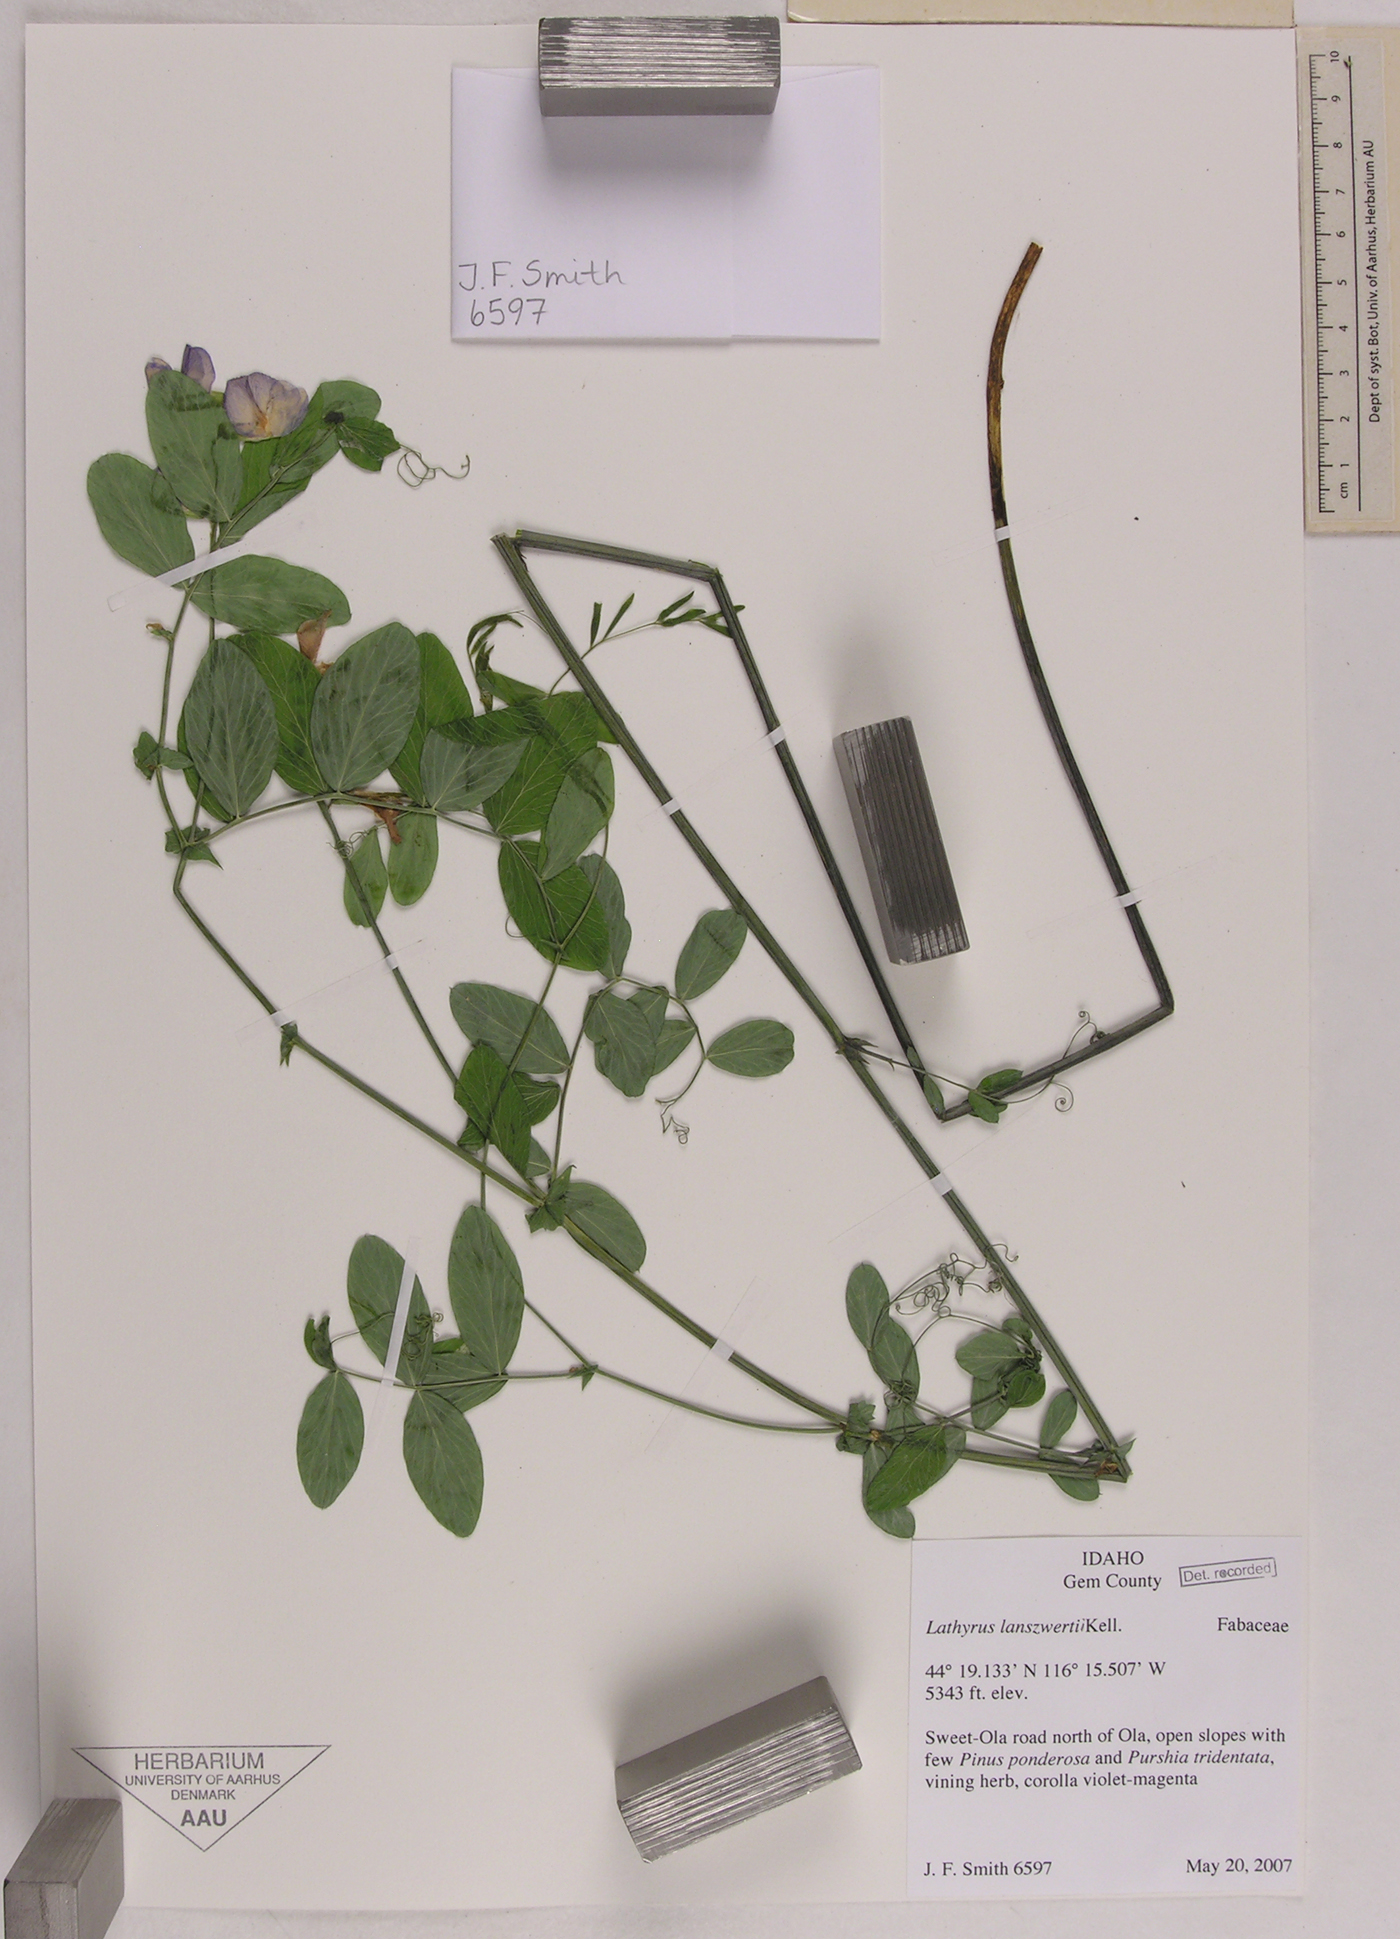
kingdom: Plantae
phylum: Tracheophyta
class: Magnoliopsida
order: Fabales
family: Fabaceae
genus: Lathyrus
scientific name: Lathyrus lanszwertii
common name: Lanszwert's vetchling
